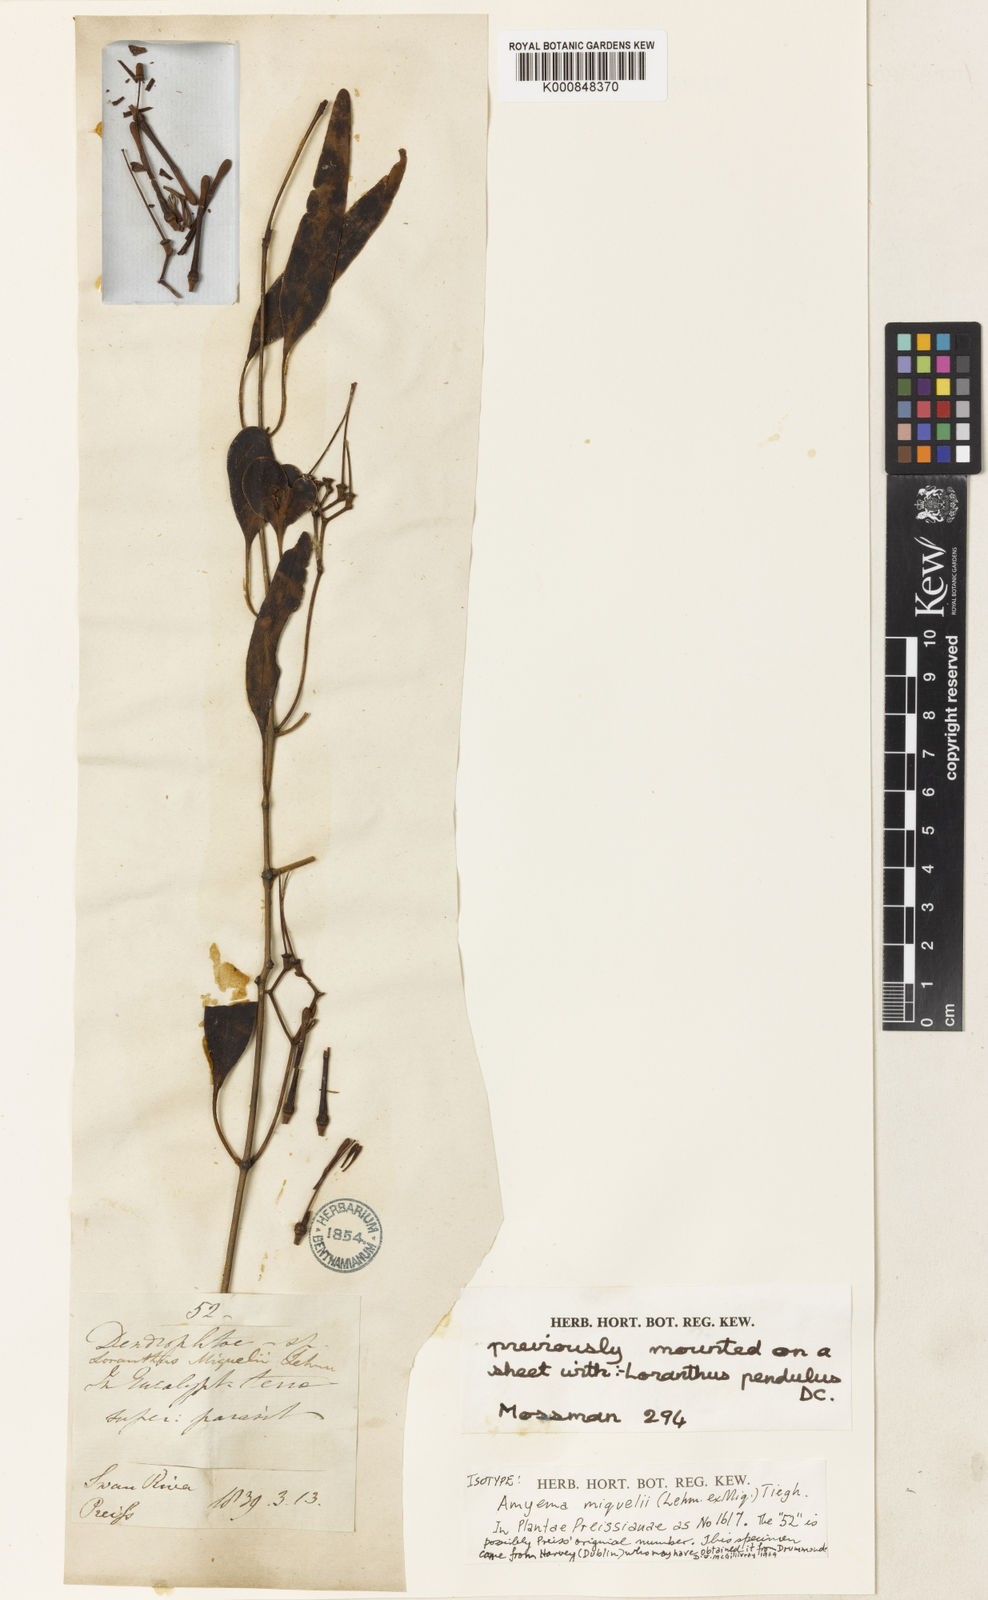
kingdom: Plantae
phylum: Tracheophyta
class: Magnoliopsida
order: Santalales
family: Loranthaceae
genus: Amyema
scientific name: Amyema miquelii
